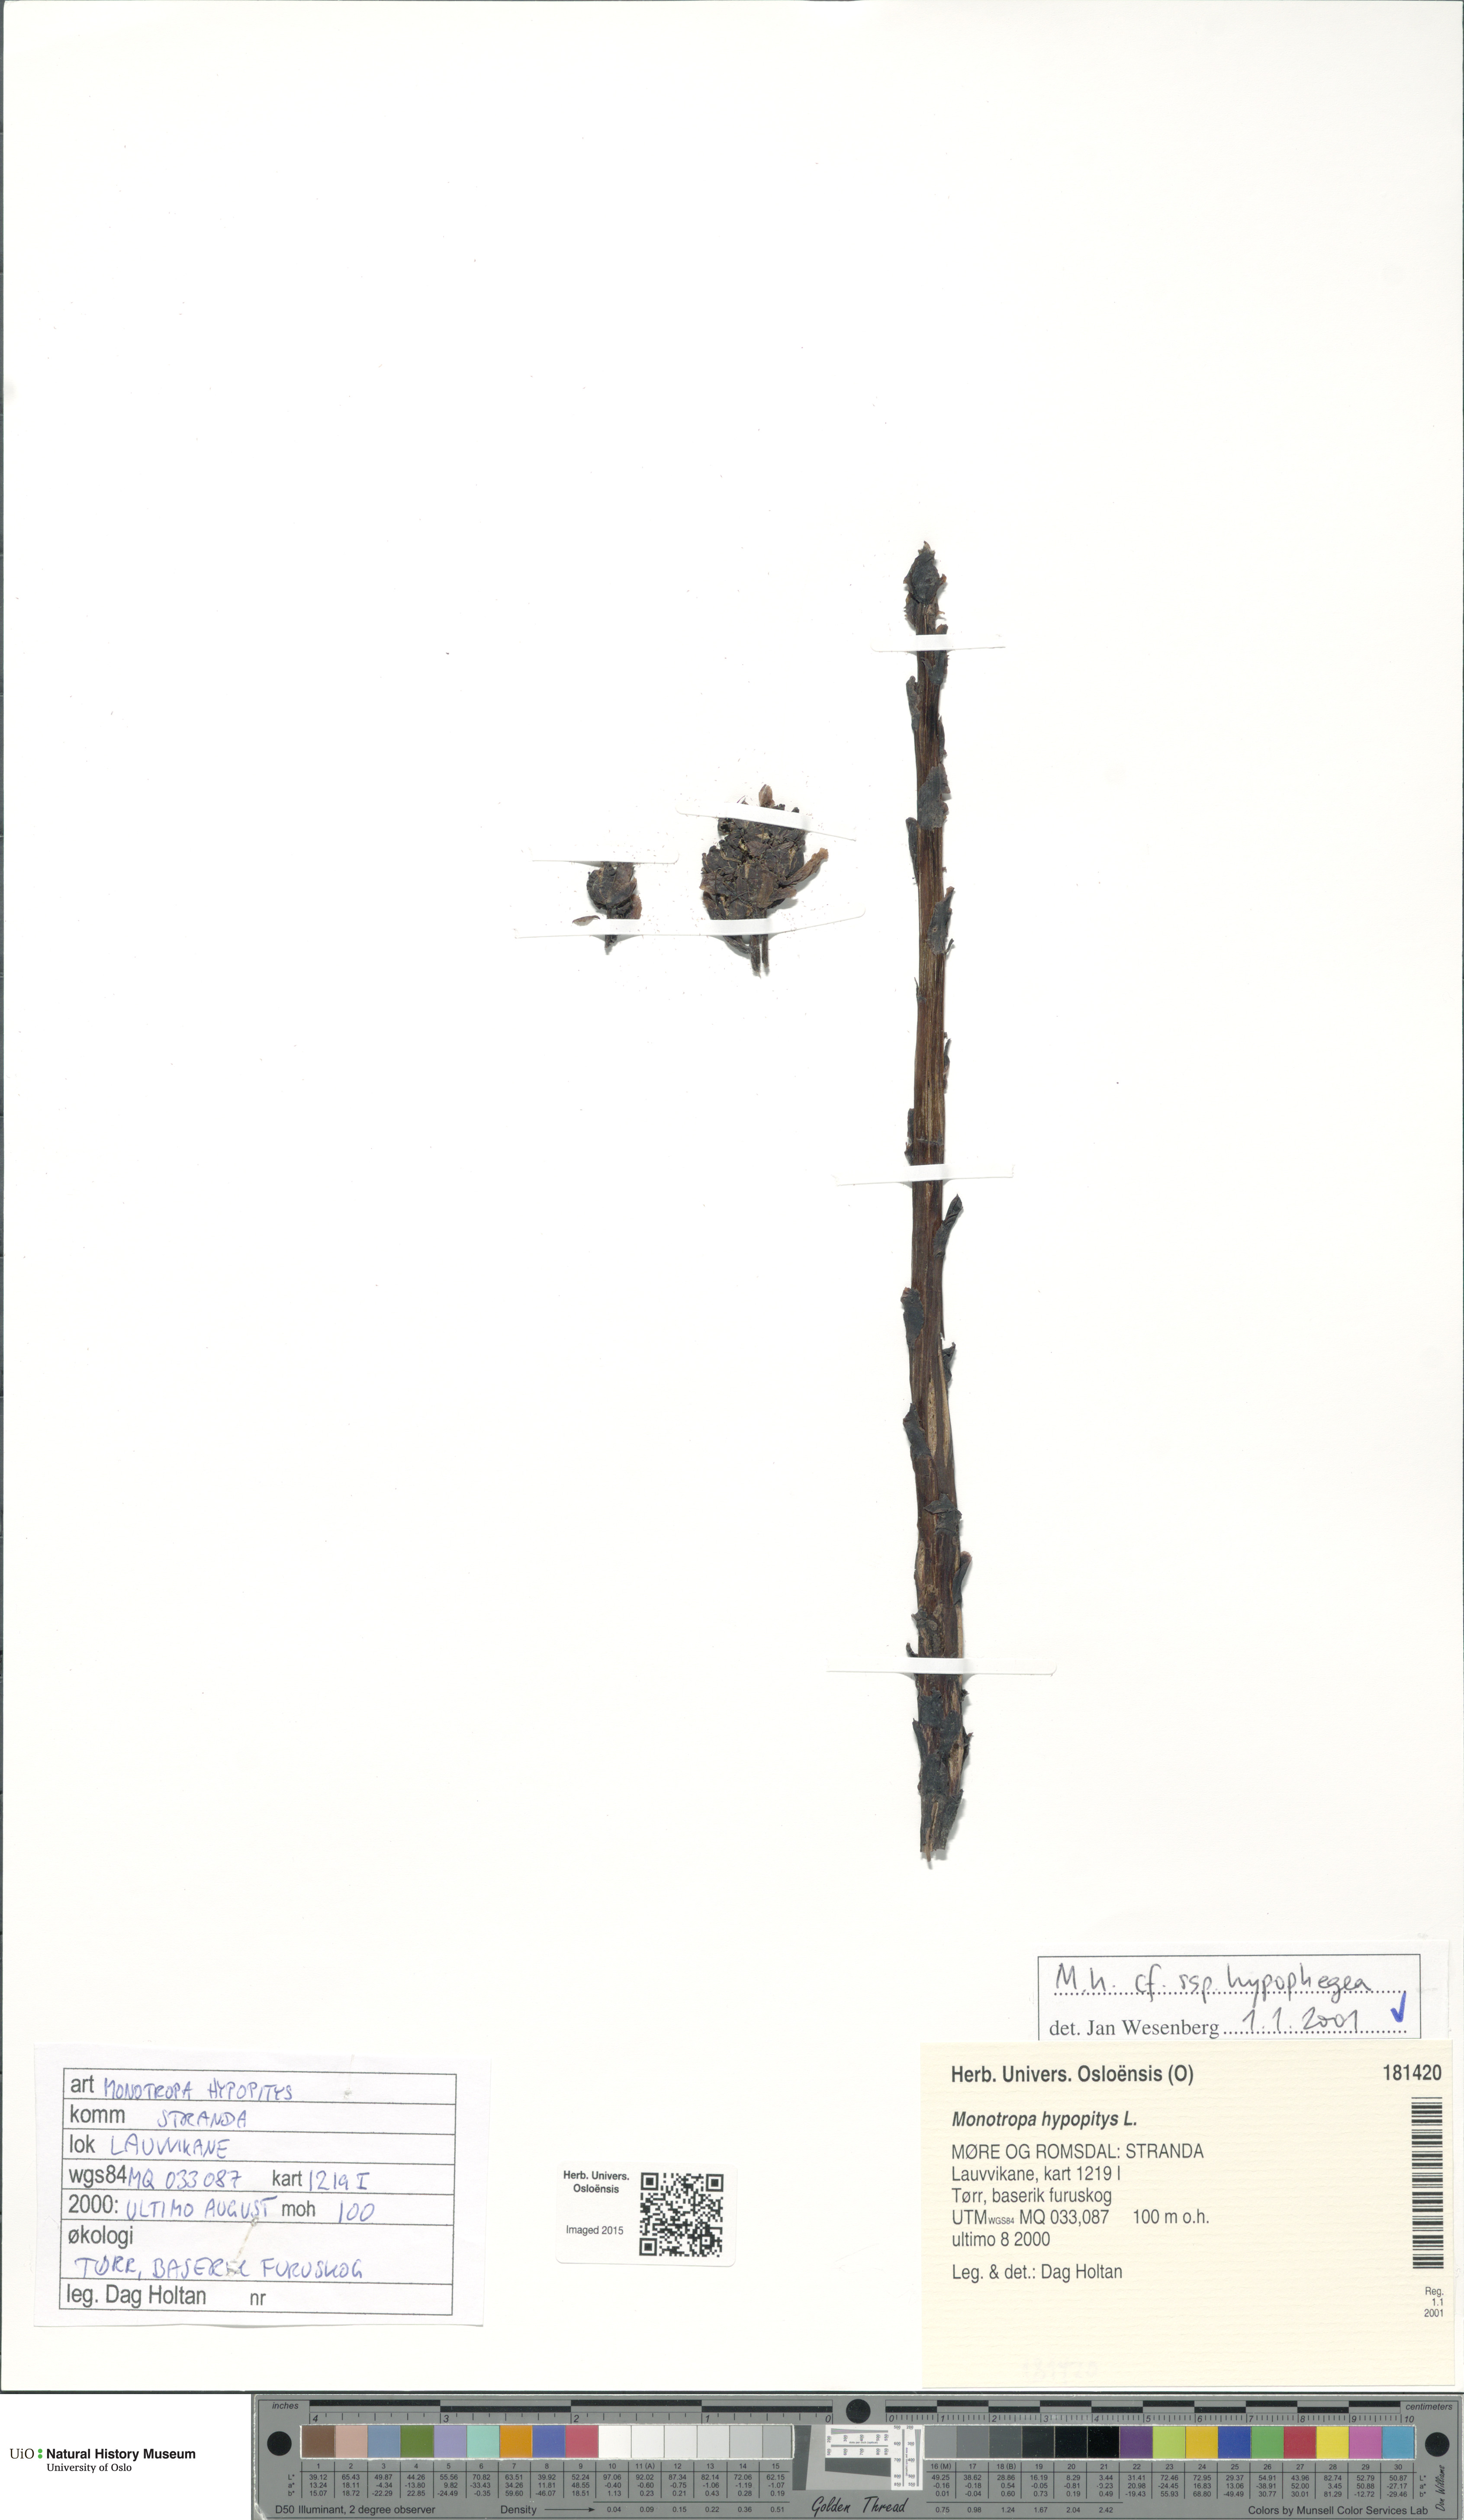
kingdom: Plantae
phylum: Tracheophyta
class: Magnoliopsida
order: Ericales
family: Ericaceae
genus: Hypopitys
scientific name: Hypopitys hypophegea
